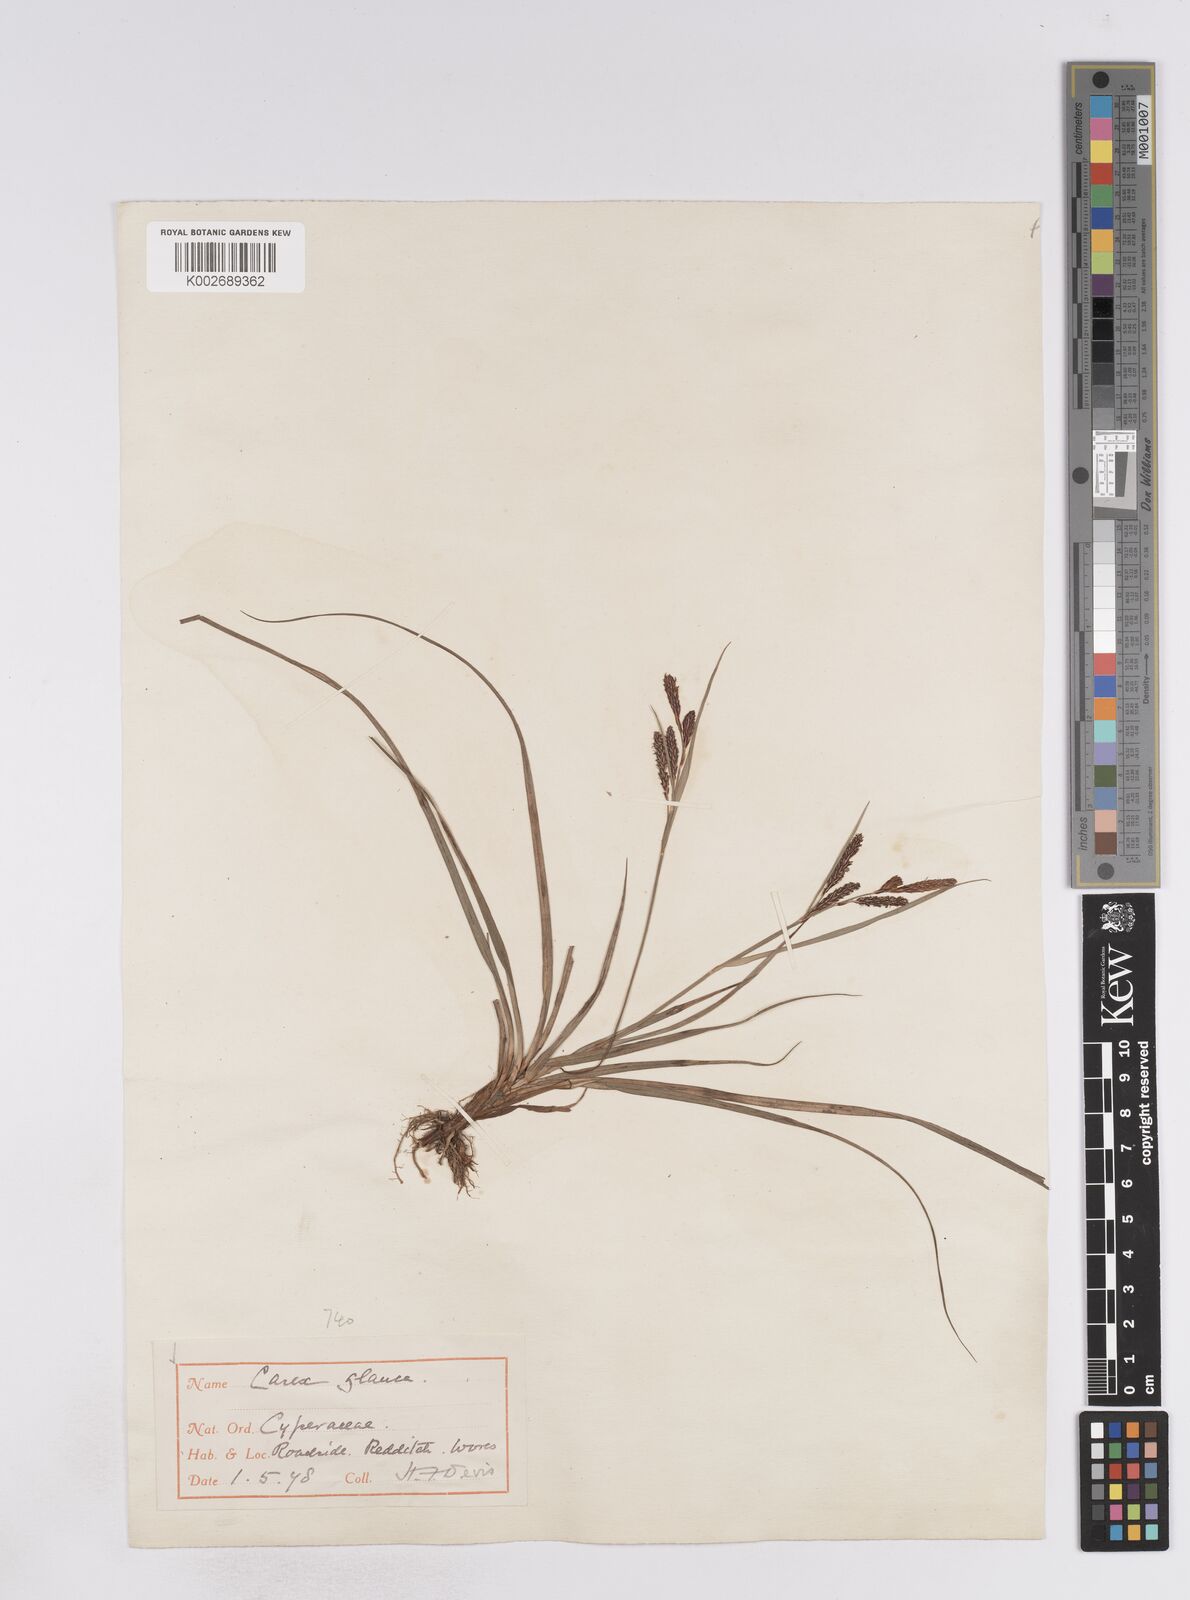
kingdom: Plantae
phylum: Tracheophyta
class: Liliopsida
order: Poales
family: Cyperaceae
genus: Carex
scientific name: Carex flacca
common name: Glaucous sedge
